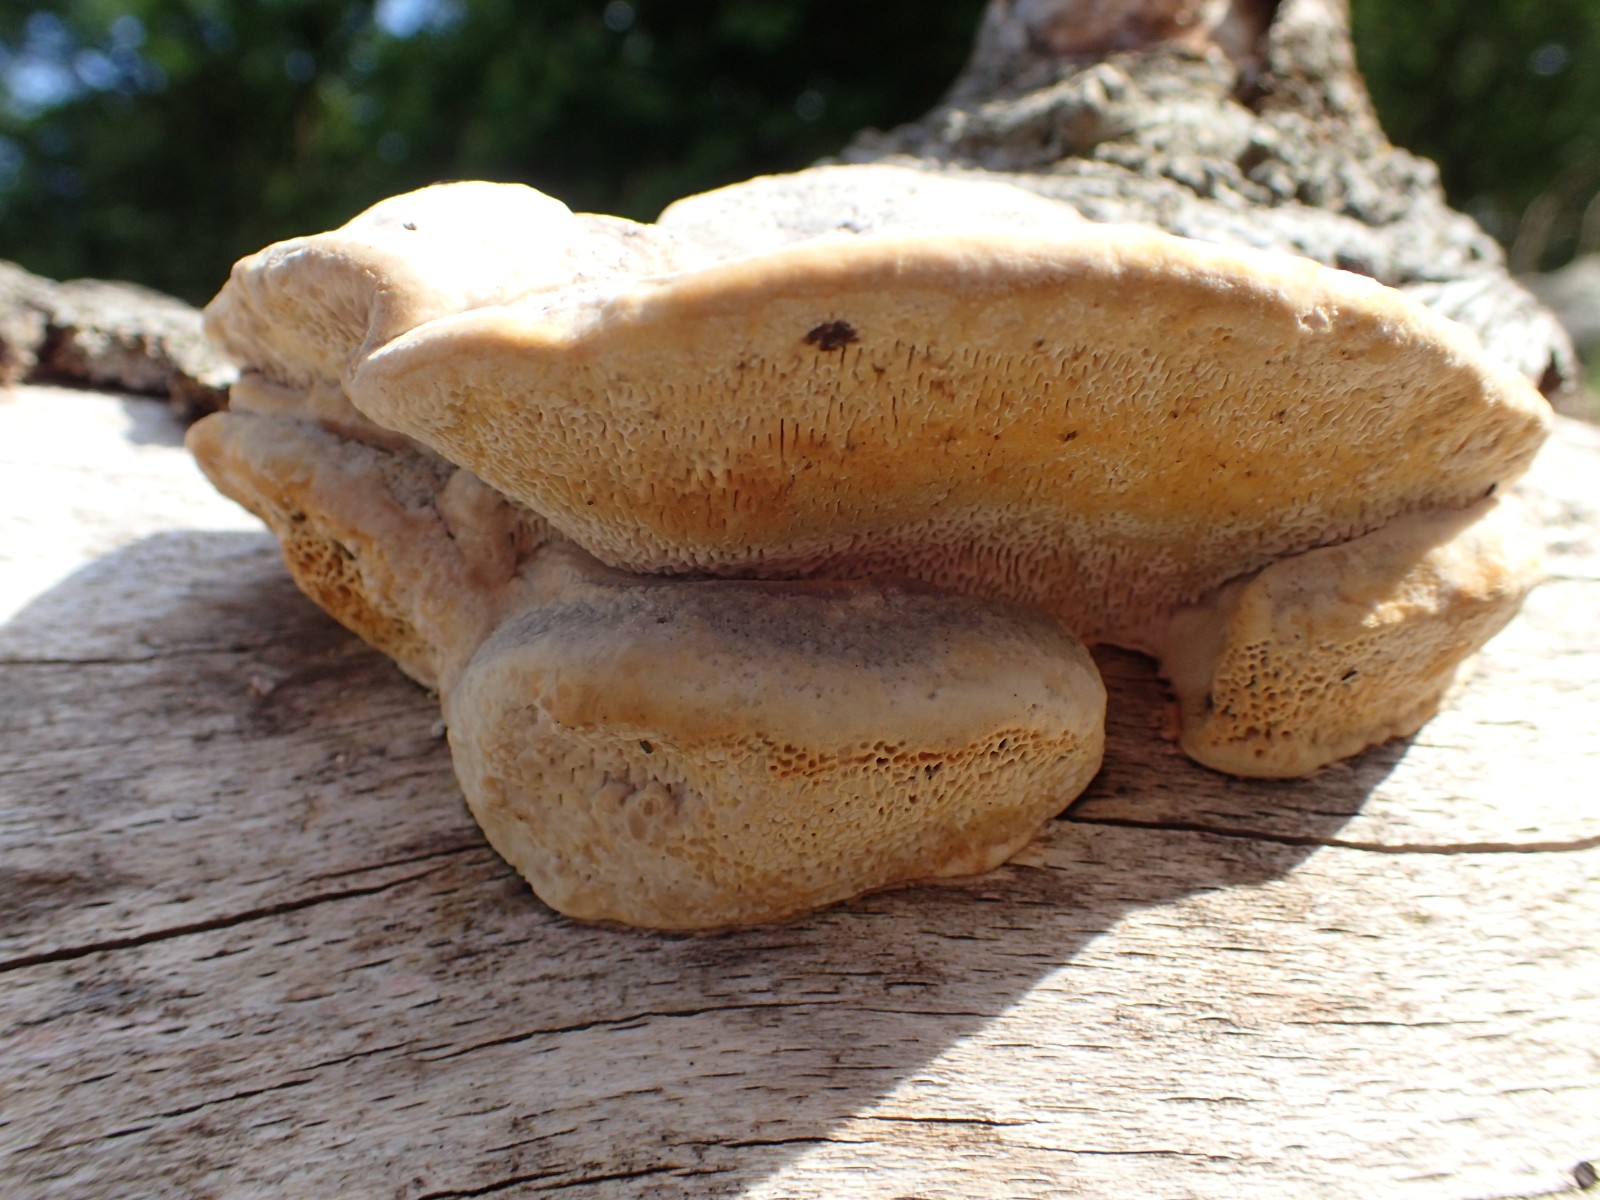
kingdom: Fungi
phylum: Basidiomycota
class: Agaricomycetes
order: Polyporales
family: Polyporaceae
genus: Trametes
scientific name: Trametes gibbosa
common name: puklet læderporesvamp
